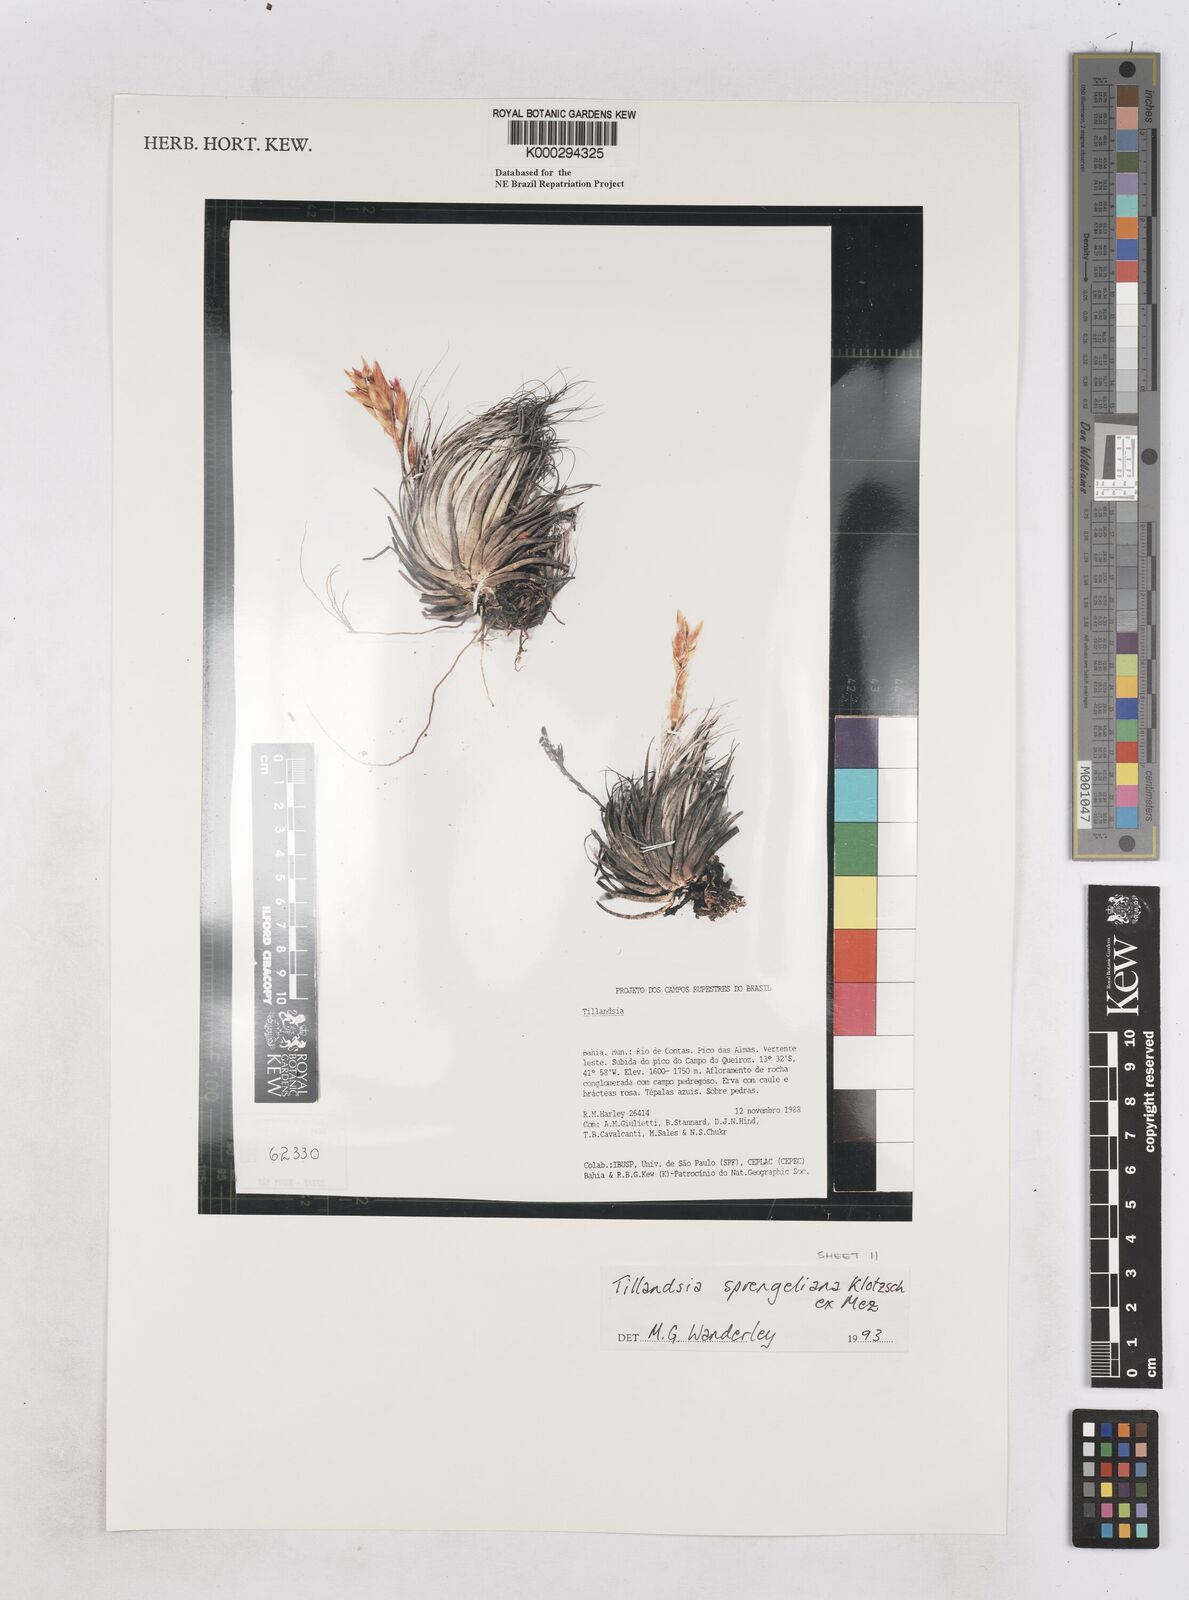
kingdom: Plantae
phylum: Tracheophyta
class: Liliopsida
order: Poales
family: Bromeliaceae
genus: Tillandsia
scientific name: Tillandsia sprengeliana
